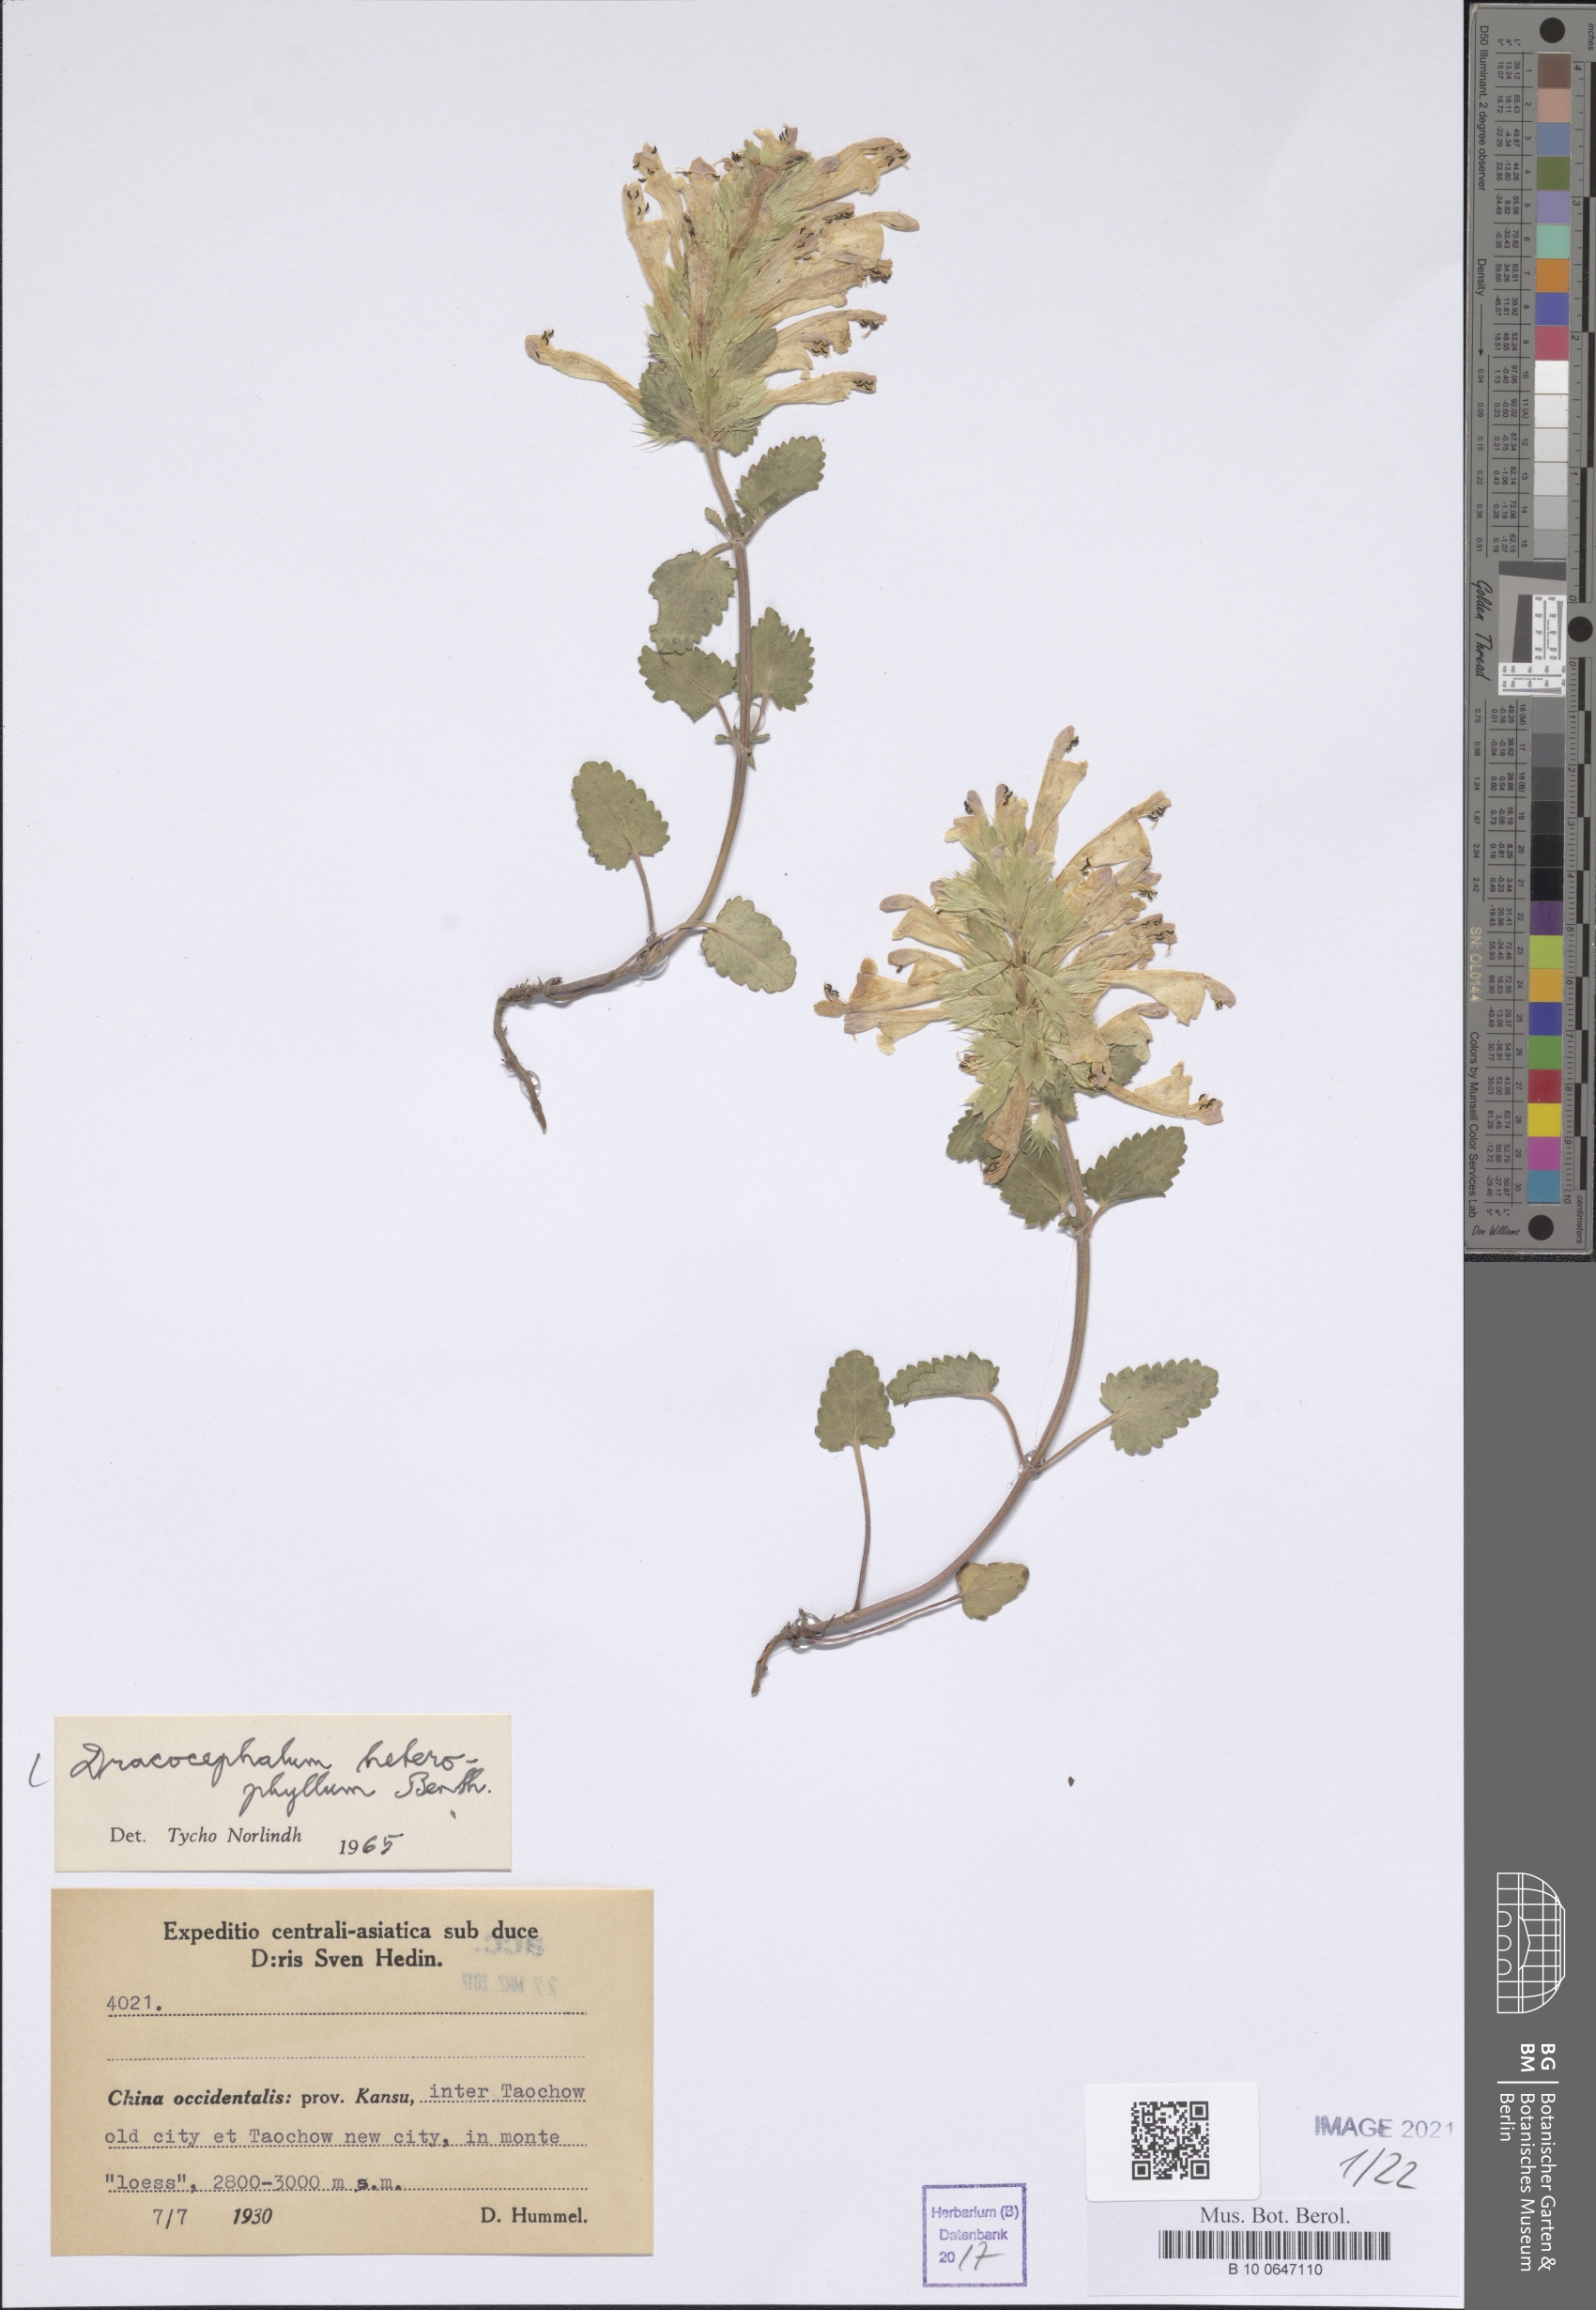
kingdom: Plantae
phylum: Tracheophyta
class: Magnoliopsida
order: Lamiales
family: Lamiaceae
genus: Dracocephalum
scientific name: Dracocephalum heterophyllum
